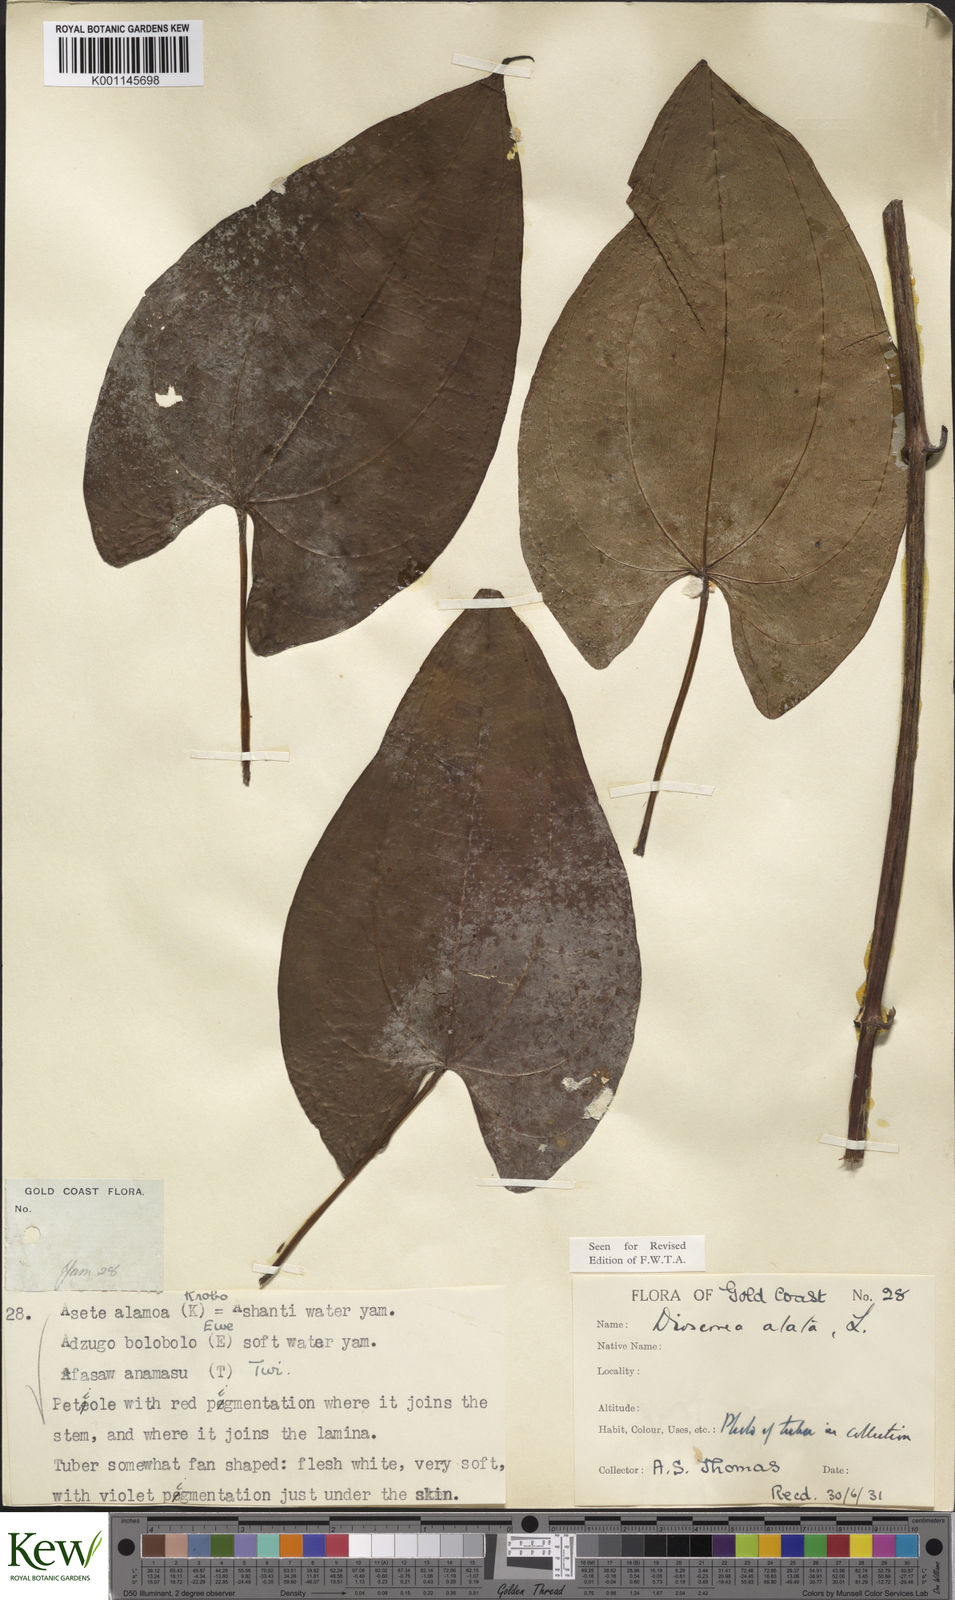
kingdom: Plantae
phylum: Tracheophyta
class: Liliopsida
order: Dioscoreales
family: Dioscoreaceae
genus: Dioscorea
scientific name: Dioscorea alata
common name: Water yam
